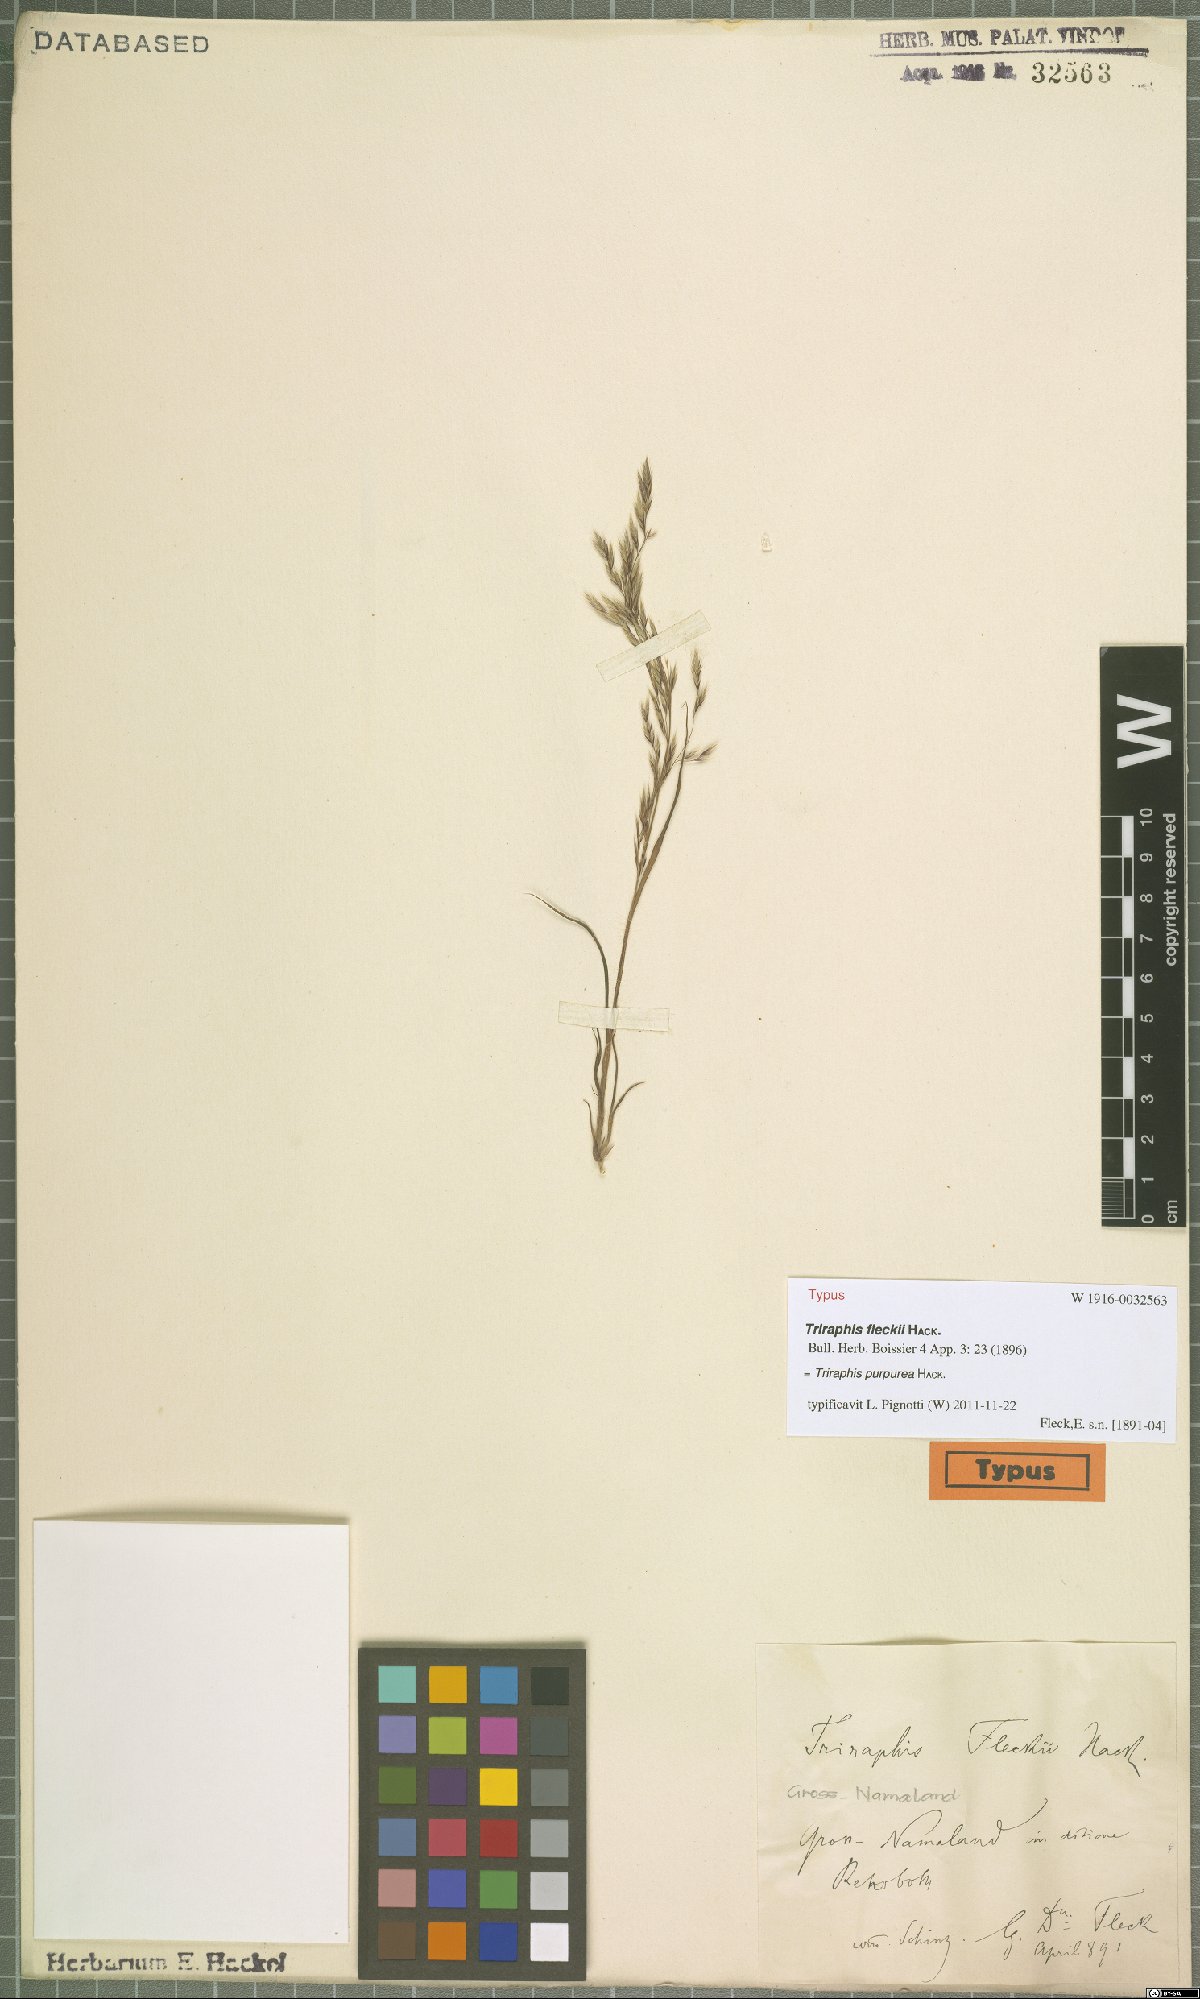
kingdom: Plantae
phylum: Tracheophyta
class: Liliopsida
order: Poales
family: Poaceae
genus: Triraphis
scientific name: Triraphis purpurea
